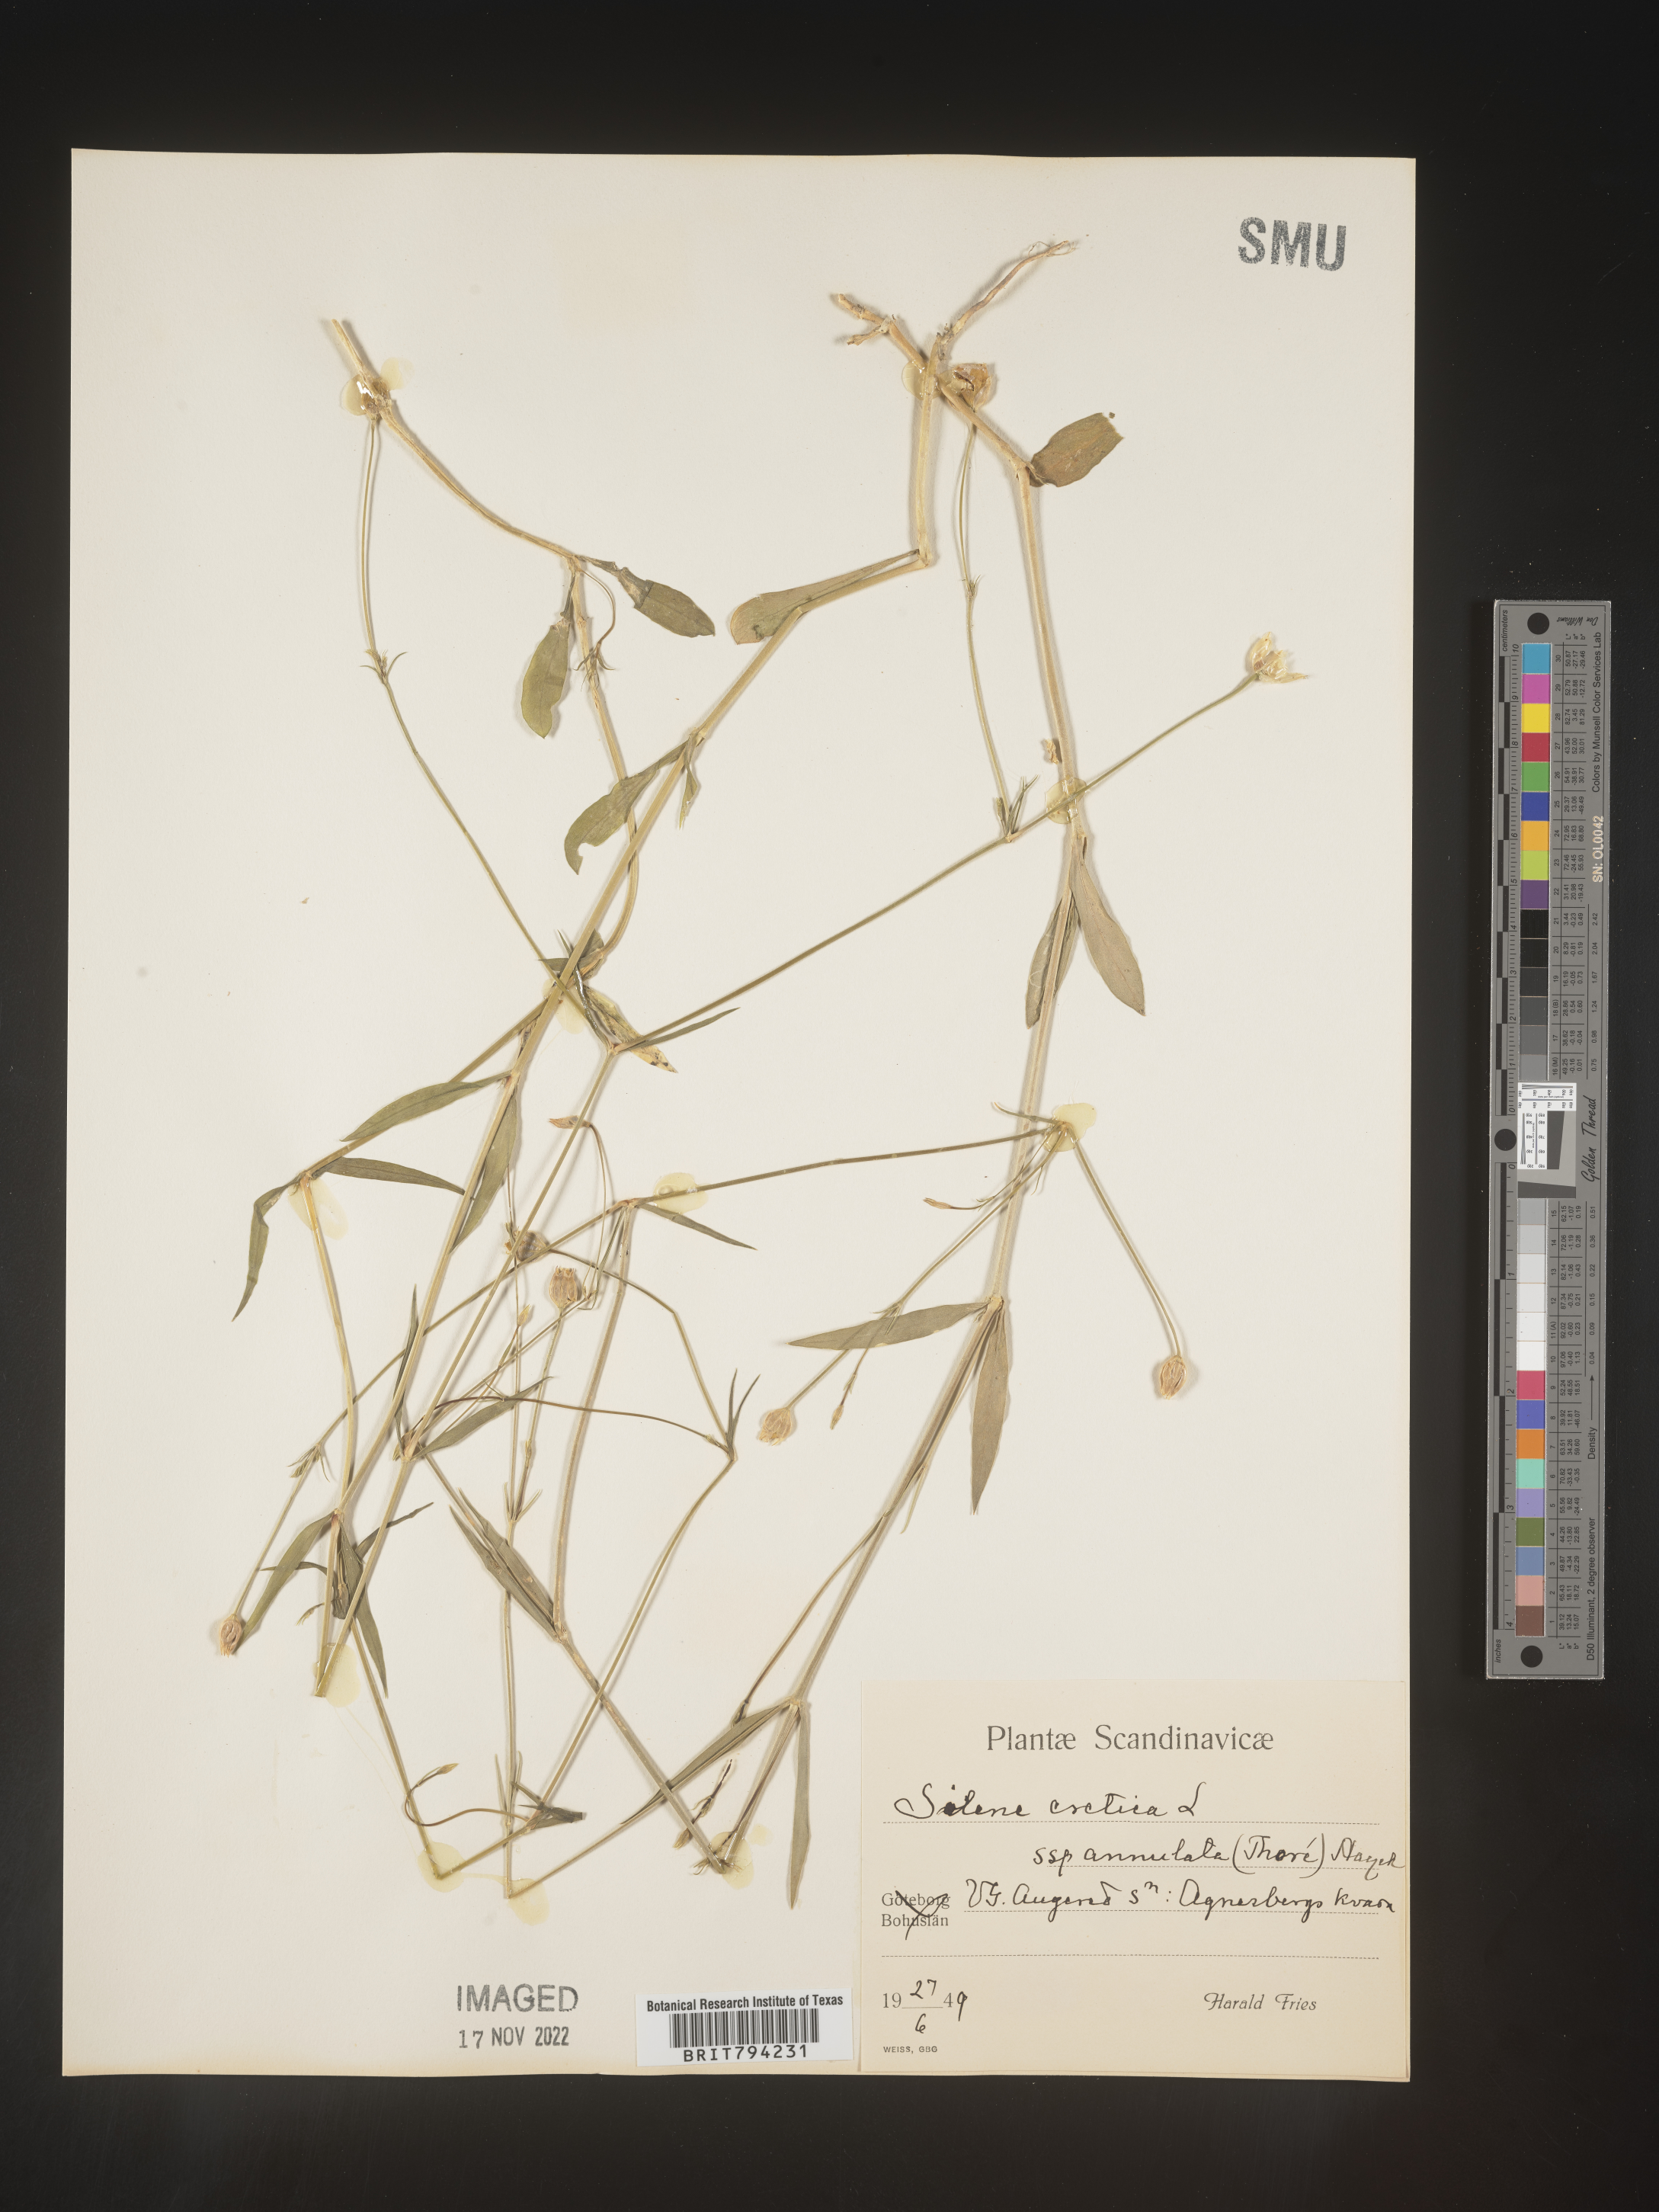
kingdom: Plantae
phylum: Tracheophyta
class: Magnoliopsida
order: Caryophyllales
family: Caryophyllaceae
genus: Silene
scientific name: Silene cretica
